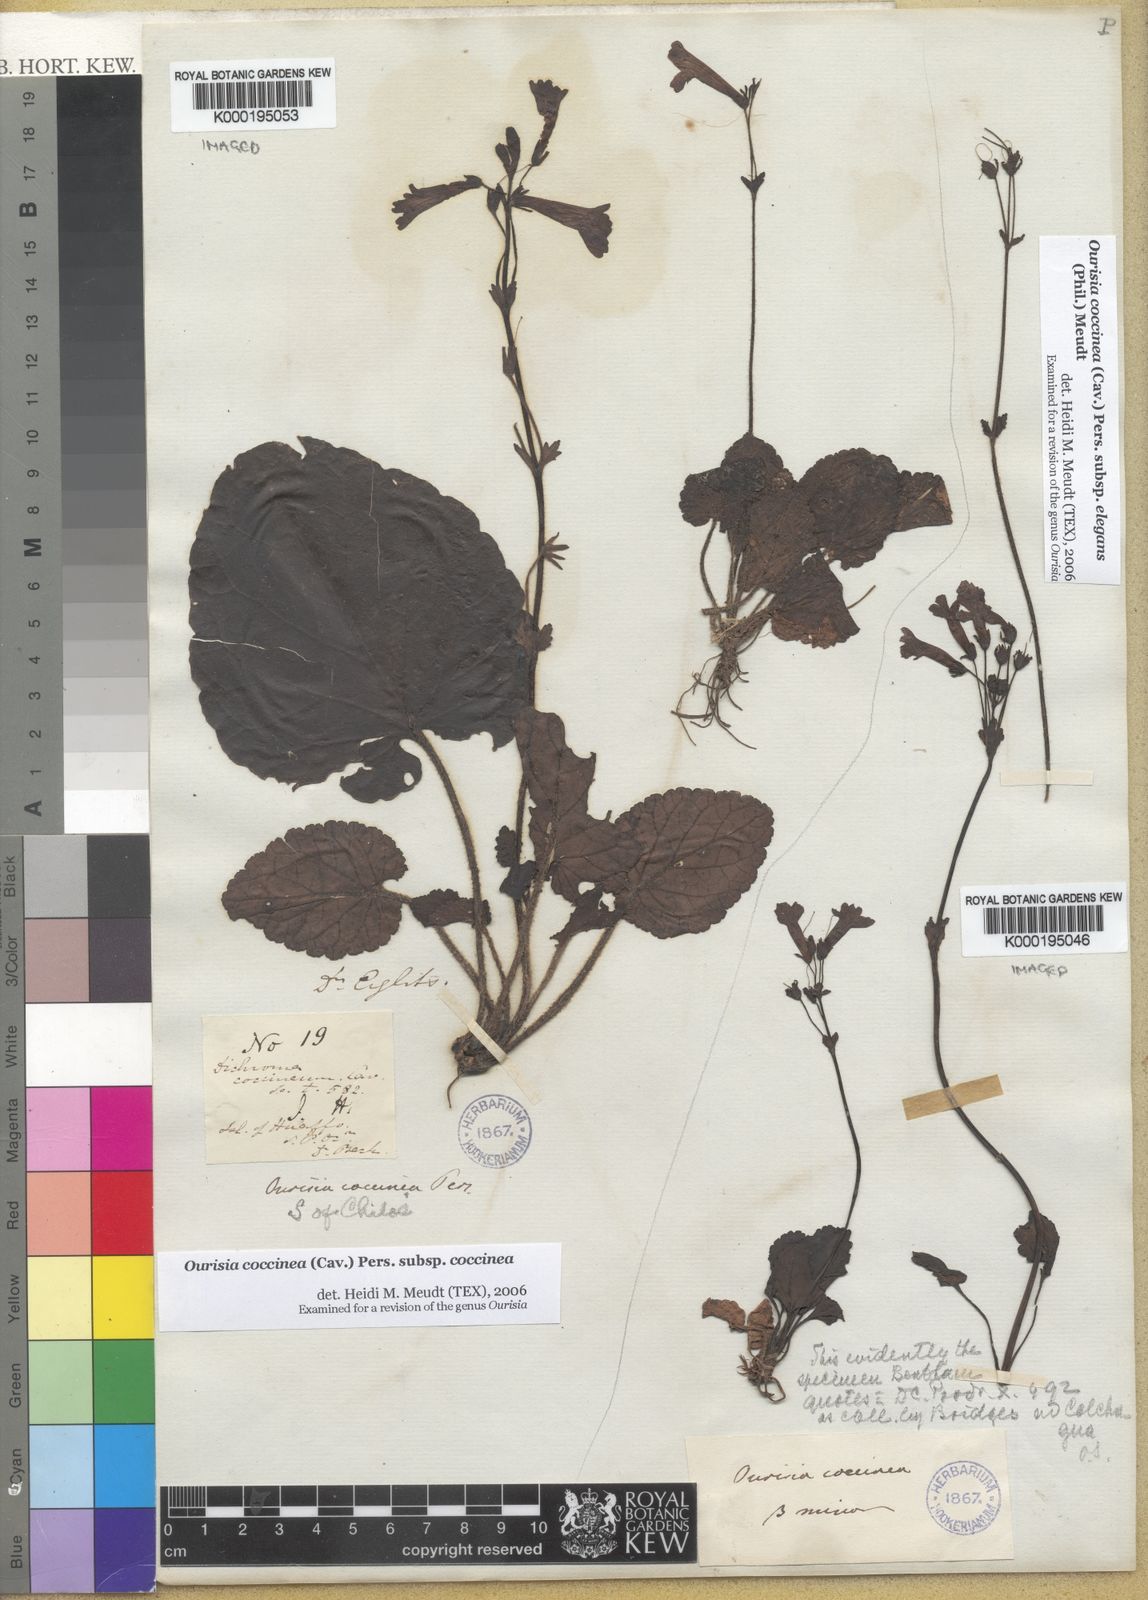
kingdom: Plantae
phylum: Tracheophyta
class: Magnoliopsida
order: Lamiales
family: Plantaginaceae
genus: Ourisia
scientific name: Ourisia coccinea
